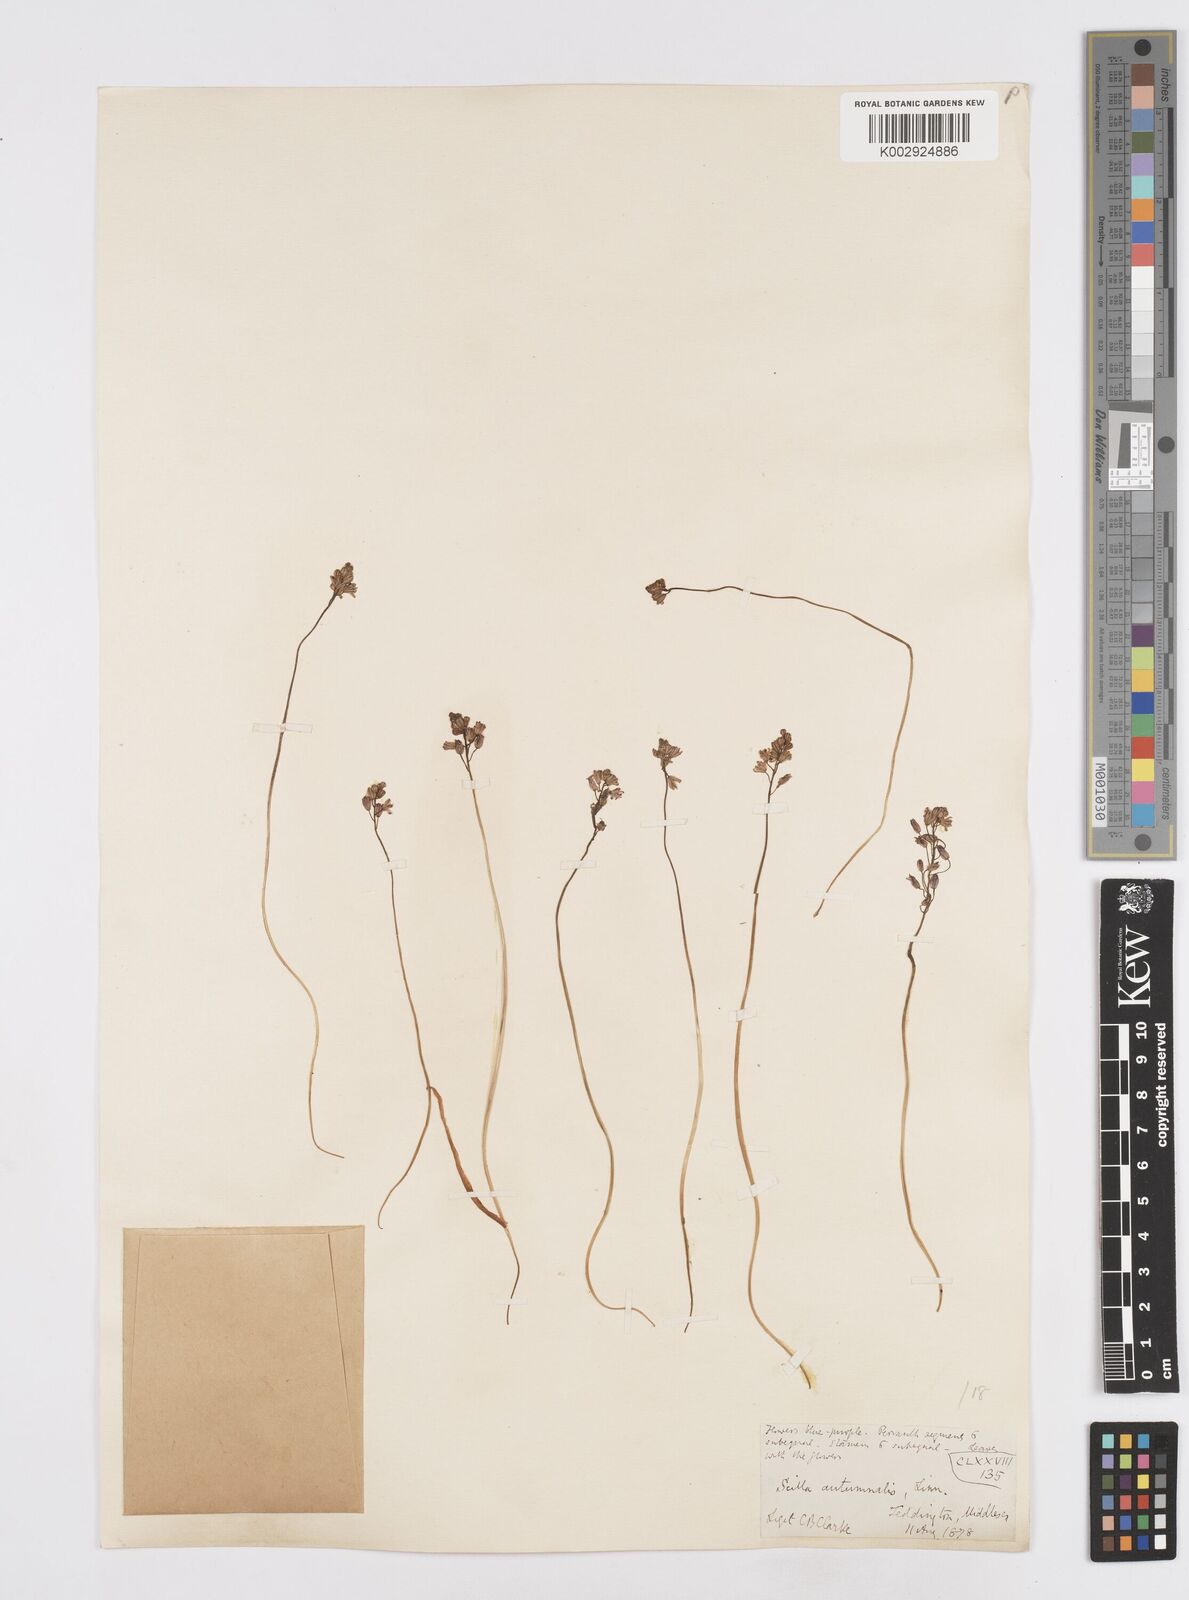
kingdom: Plantae
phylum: Tracheophyta
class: Liliopsida
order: Asparagales
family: Asparagaceae
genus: Prospero
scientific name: Prospero autumnale
